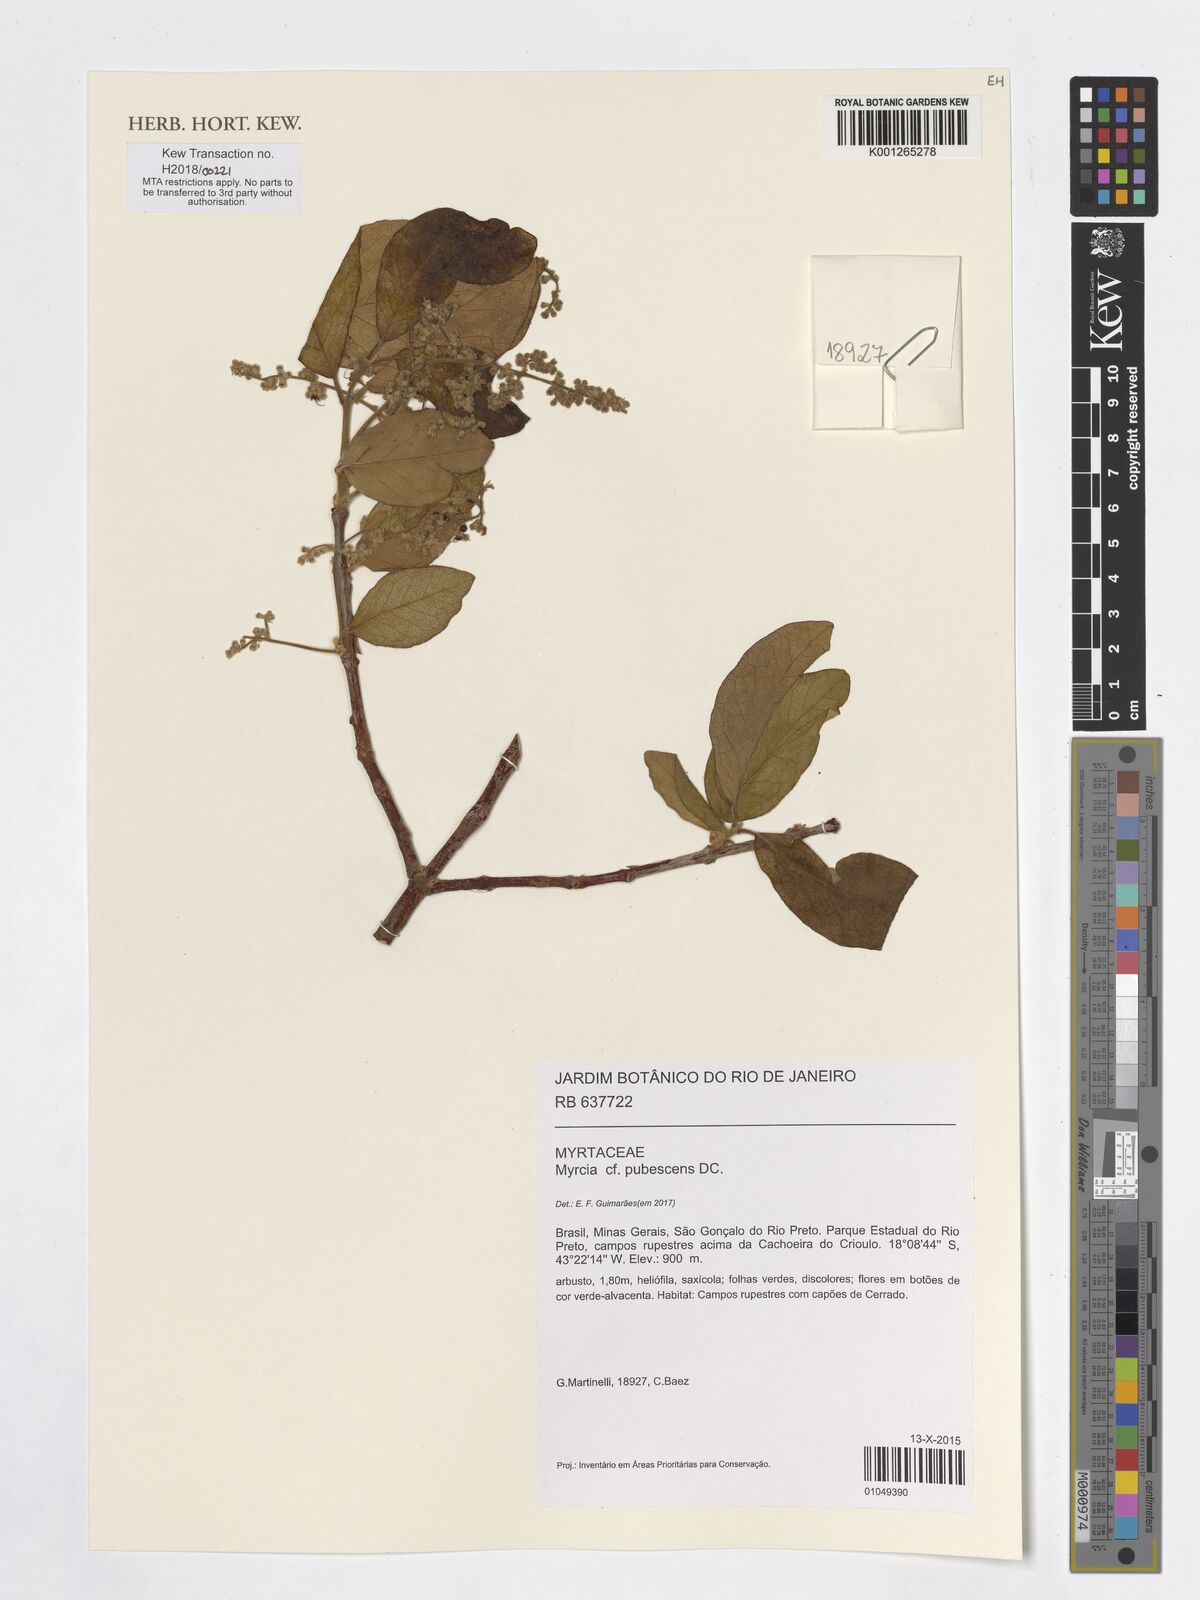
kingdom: Plantae
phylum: Tracheophyta
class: Magnoliopsida
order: Myrtales
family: Myrtaceae
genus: Myrcia
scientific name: Myrcia pubescens
